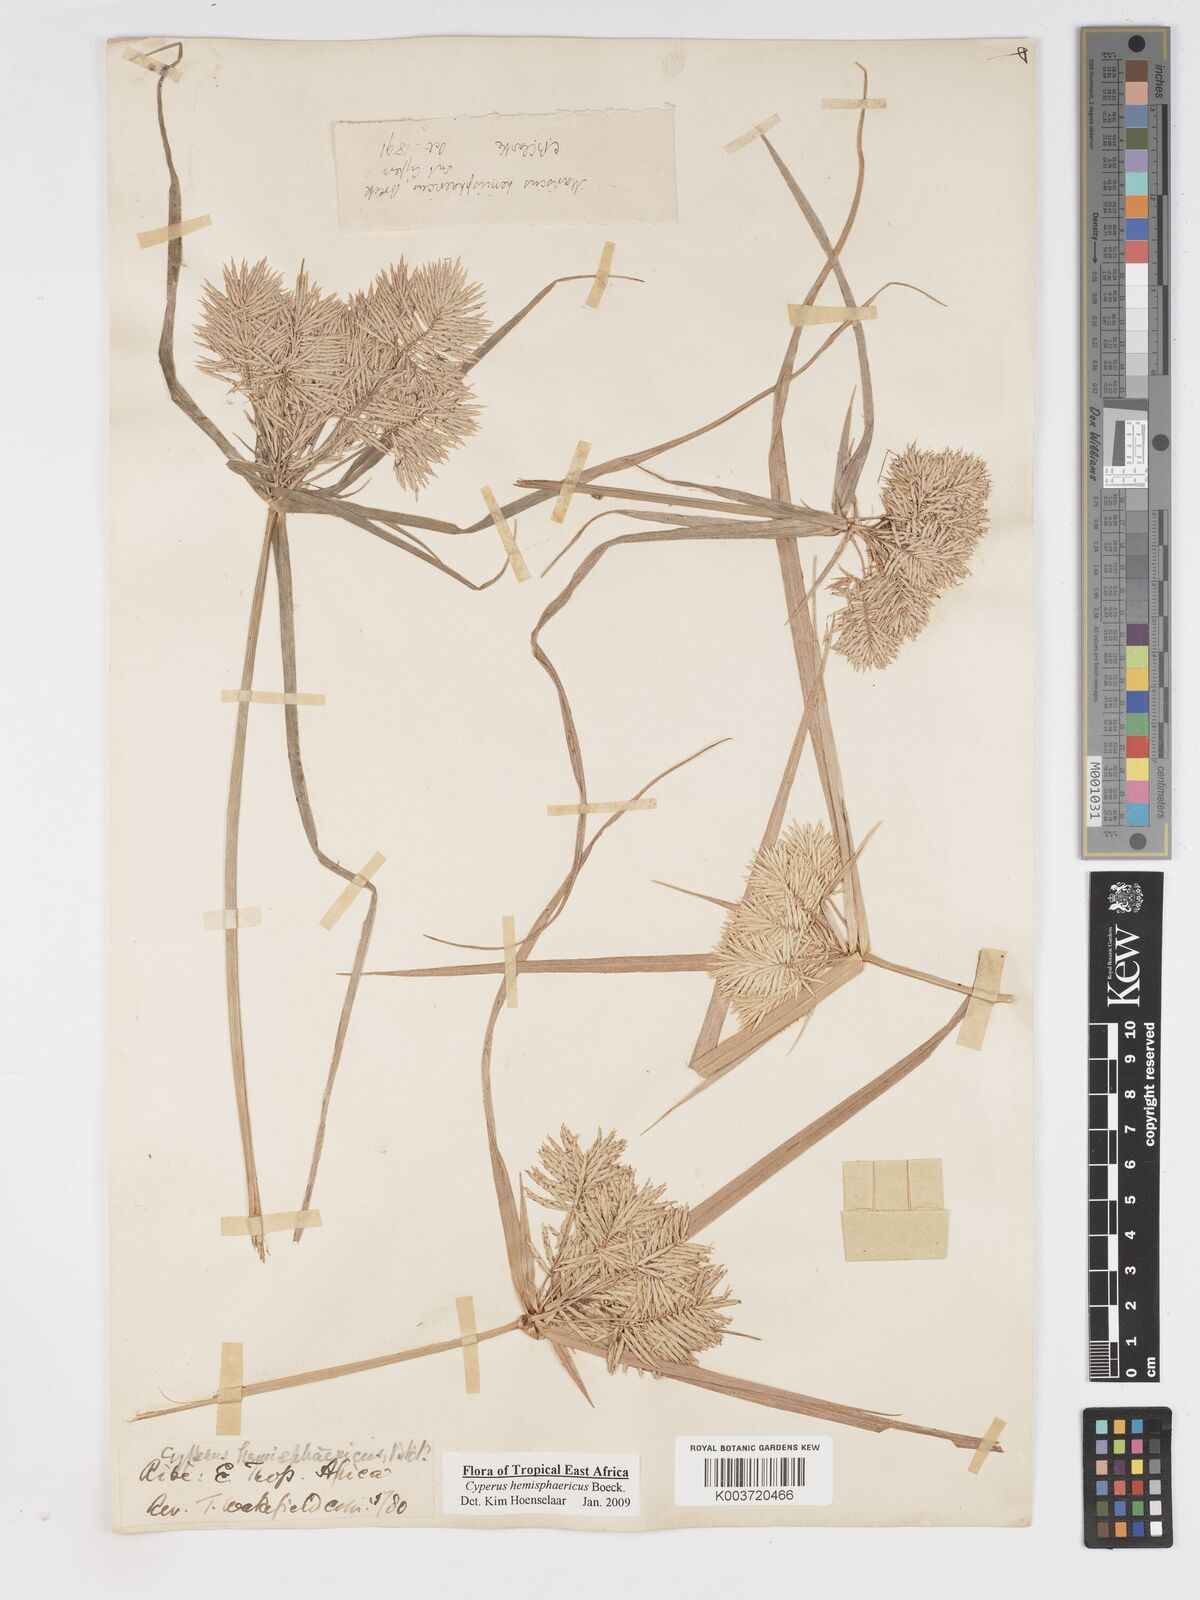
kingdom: Plantae
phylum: Tracheophyta
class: Liliopsida
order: Poales
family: Cyperaceae
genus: Cyperus
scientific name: Cyperus hemisphaericus
